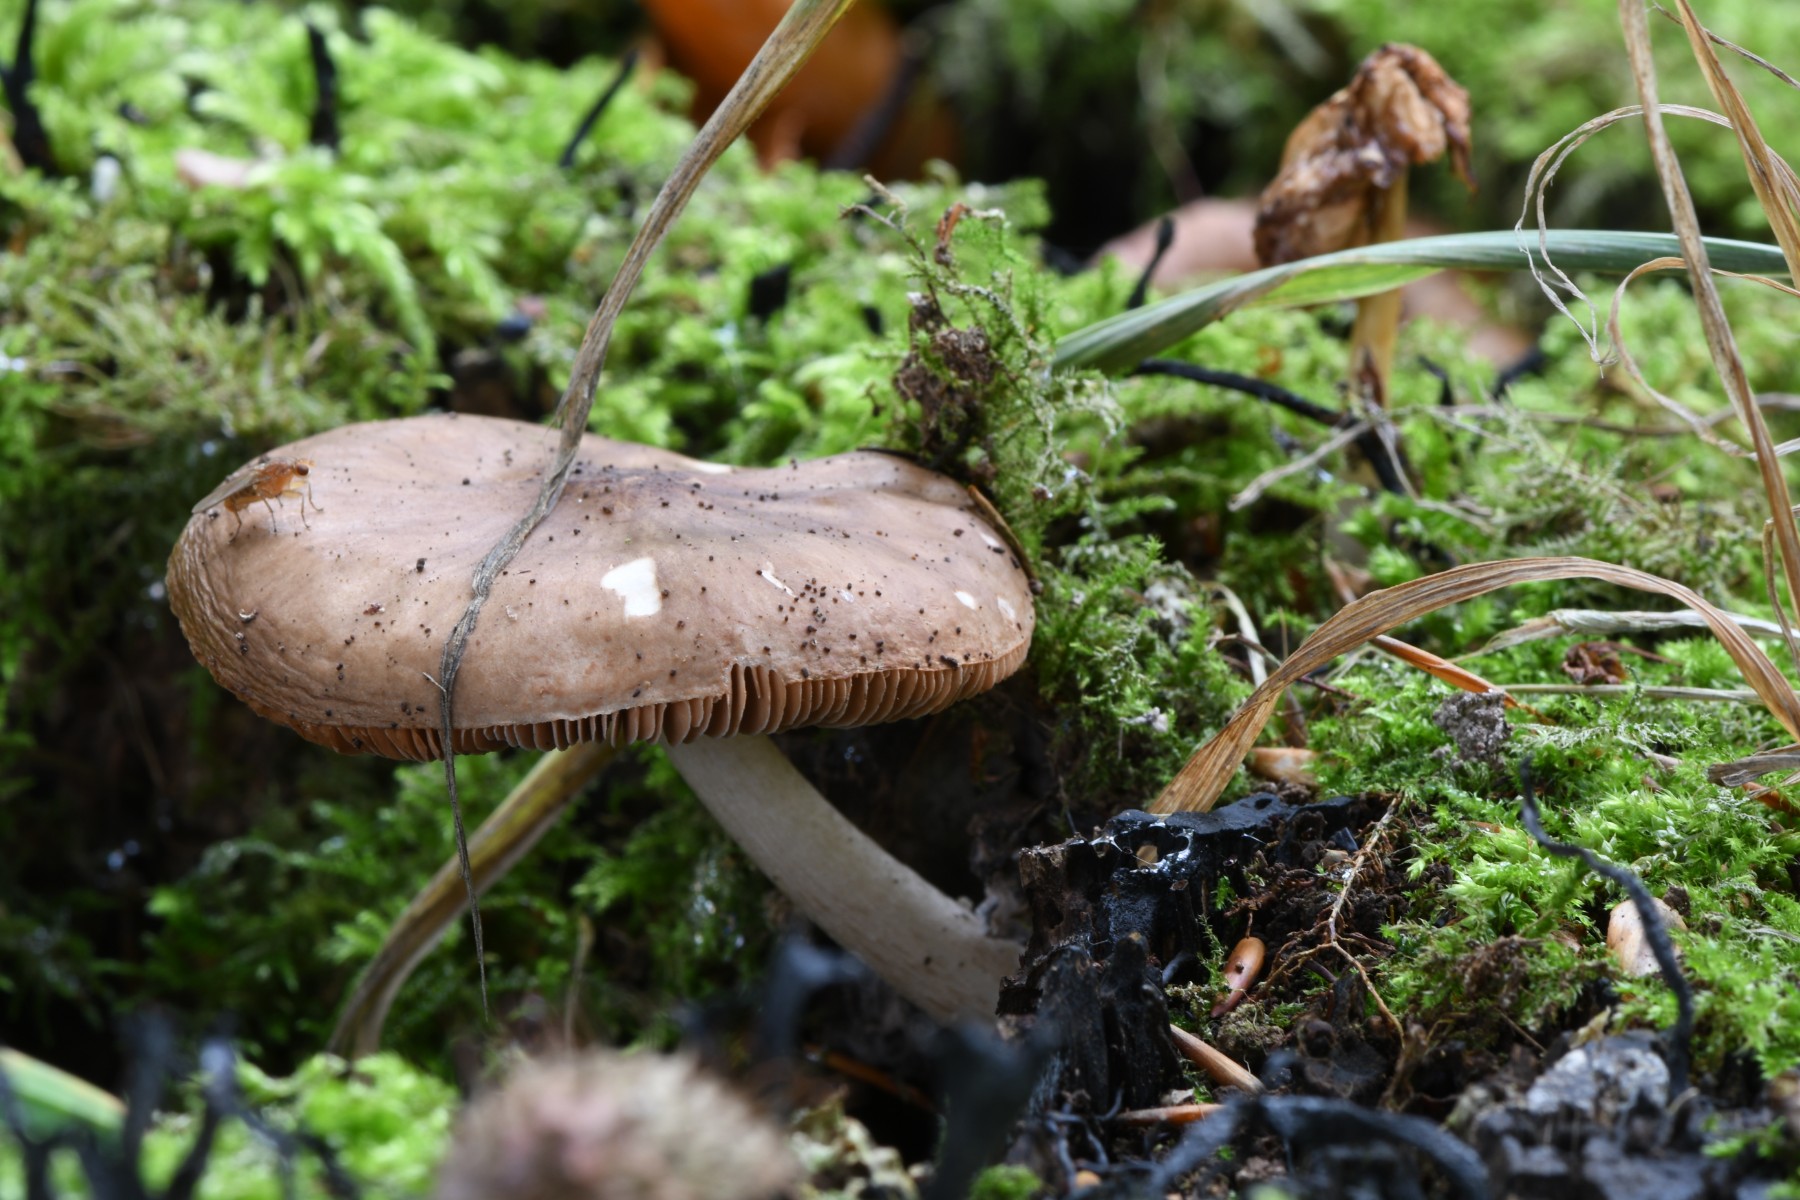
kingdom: Fungi
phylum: Basidiomycota
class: Agaricomycetes
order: Agaricales
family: Pluteaceae
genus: Pluteus
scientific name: Pluteus cervinus
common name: sodfarvet skærmhat
